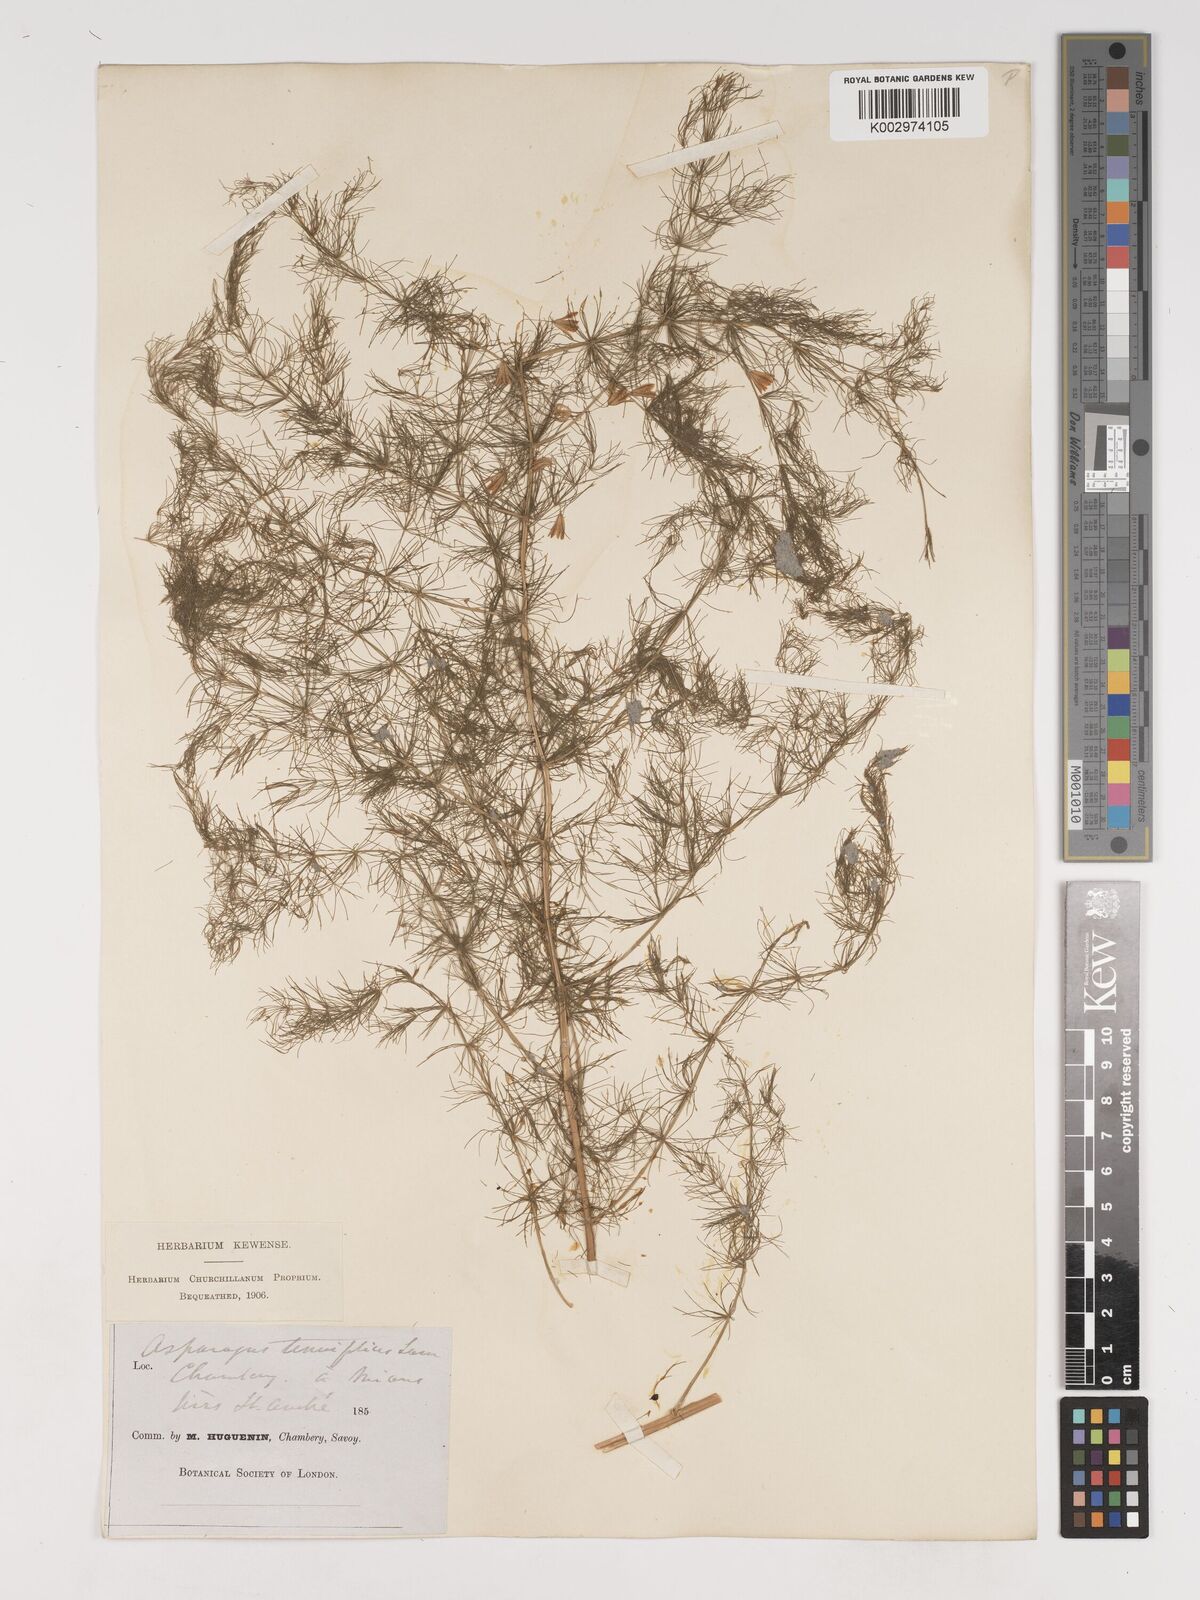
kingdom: Plantae
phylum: Tracheophyta
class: Liliopsida
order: Asparagales
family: Asparagaceae
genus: Asparagus
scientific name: Asparagus tenuifolius
